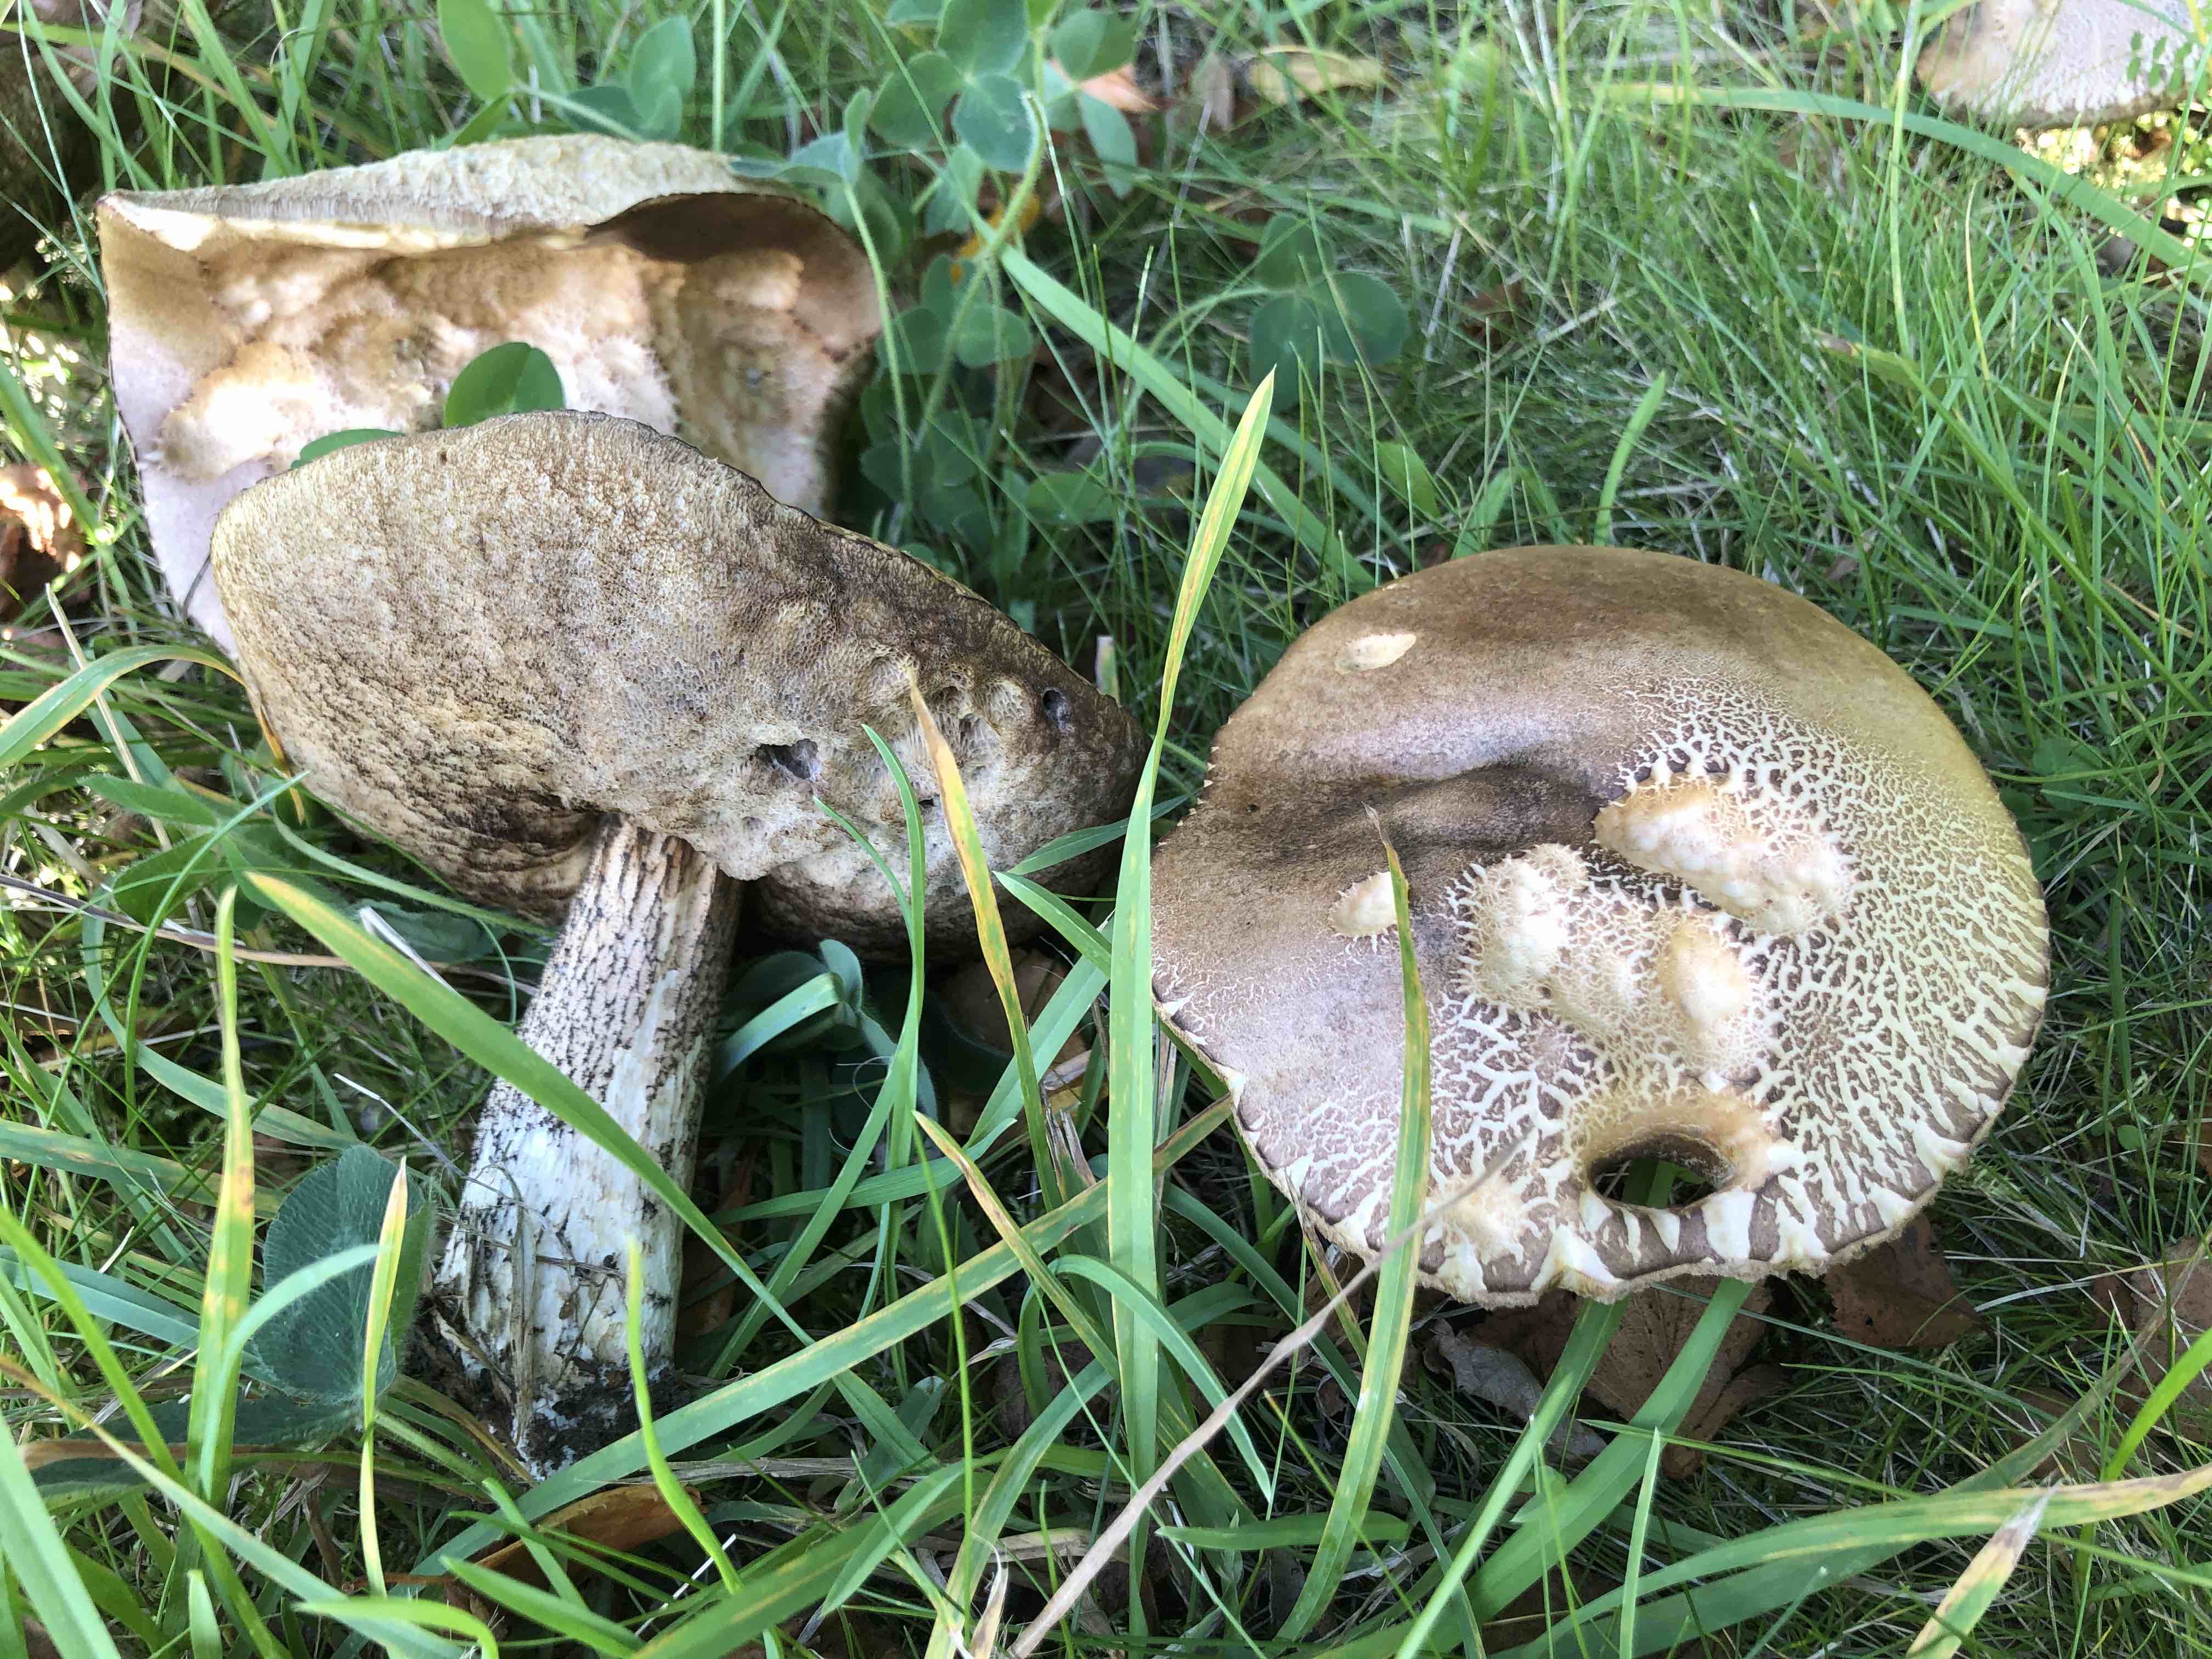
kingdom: Fungi
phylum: Basidiomycota
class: Agaricomycetes
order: Boletales
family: Boletaceae
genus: Leccinum
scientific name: Leccinum scabrum
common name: brun skælrørhat
